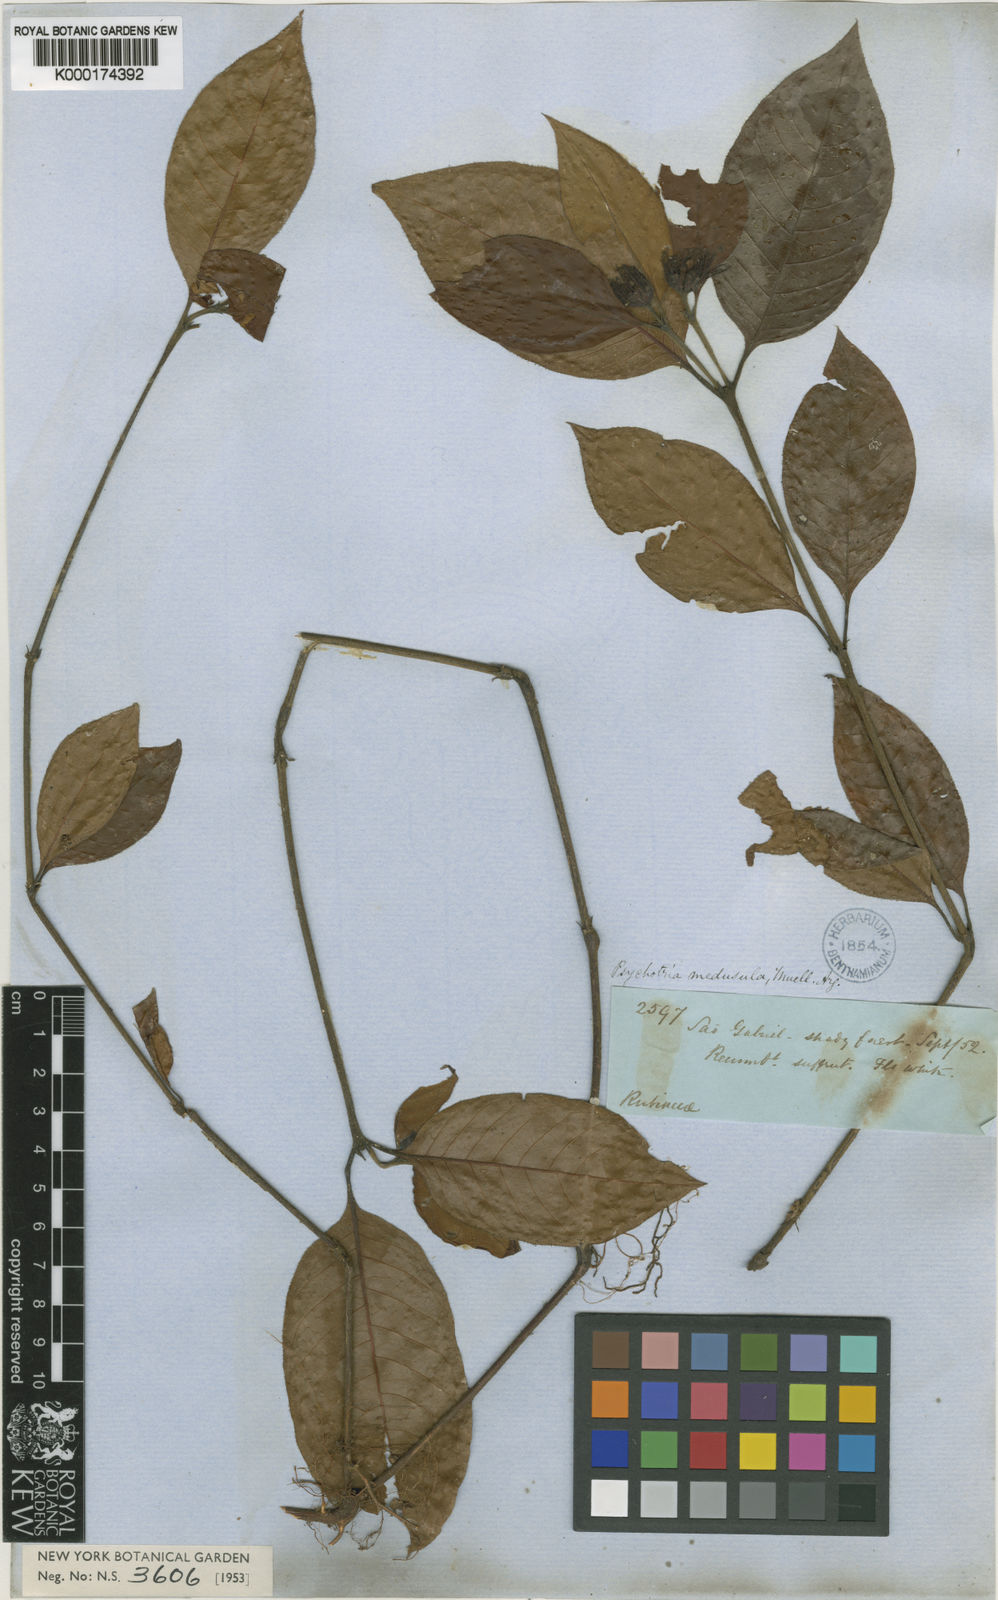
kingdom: Plantae
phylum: Tracheophyta
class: Magnoliopsida
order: Gentianales
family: Rubiaceae
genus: Psychotria
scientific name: Psychotria
